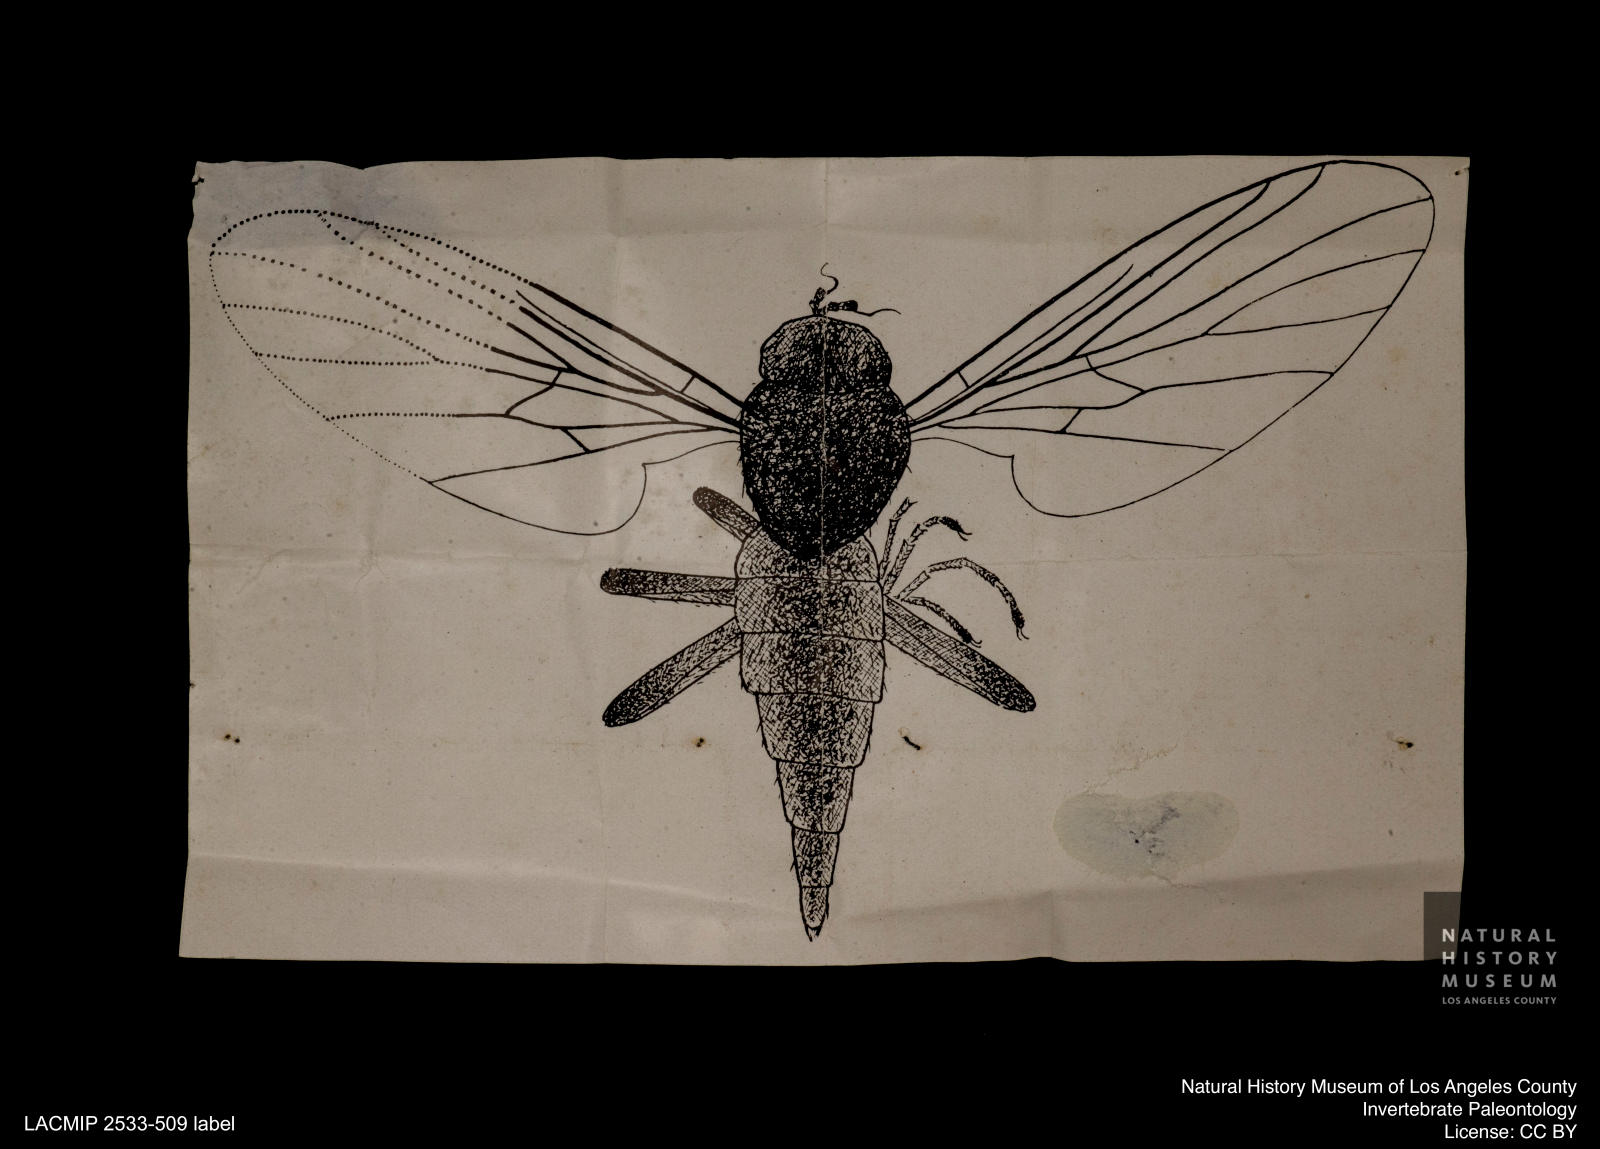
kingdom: Animalia
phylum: Arthropoda
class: Insecta
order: Diptera
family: Empididae
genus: Rhamphomyia
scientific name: Rhamphomyia latipennata
